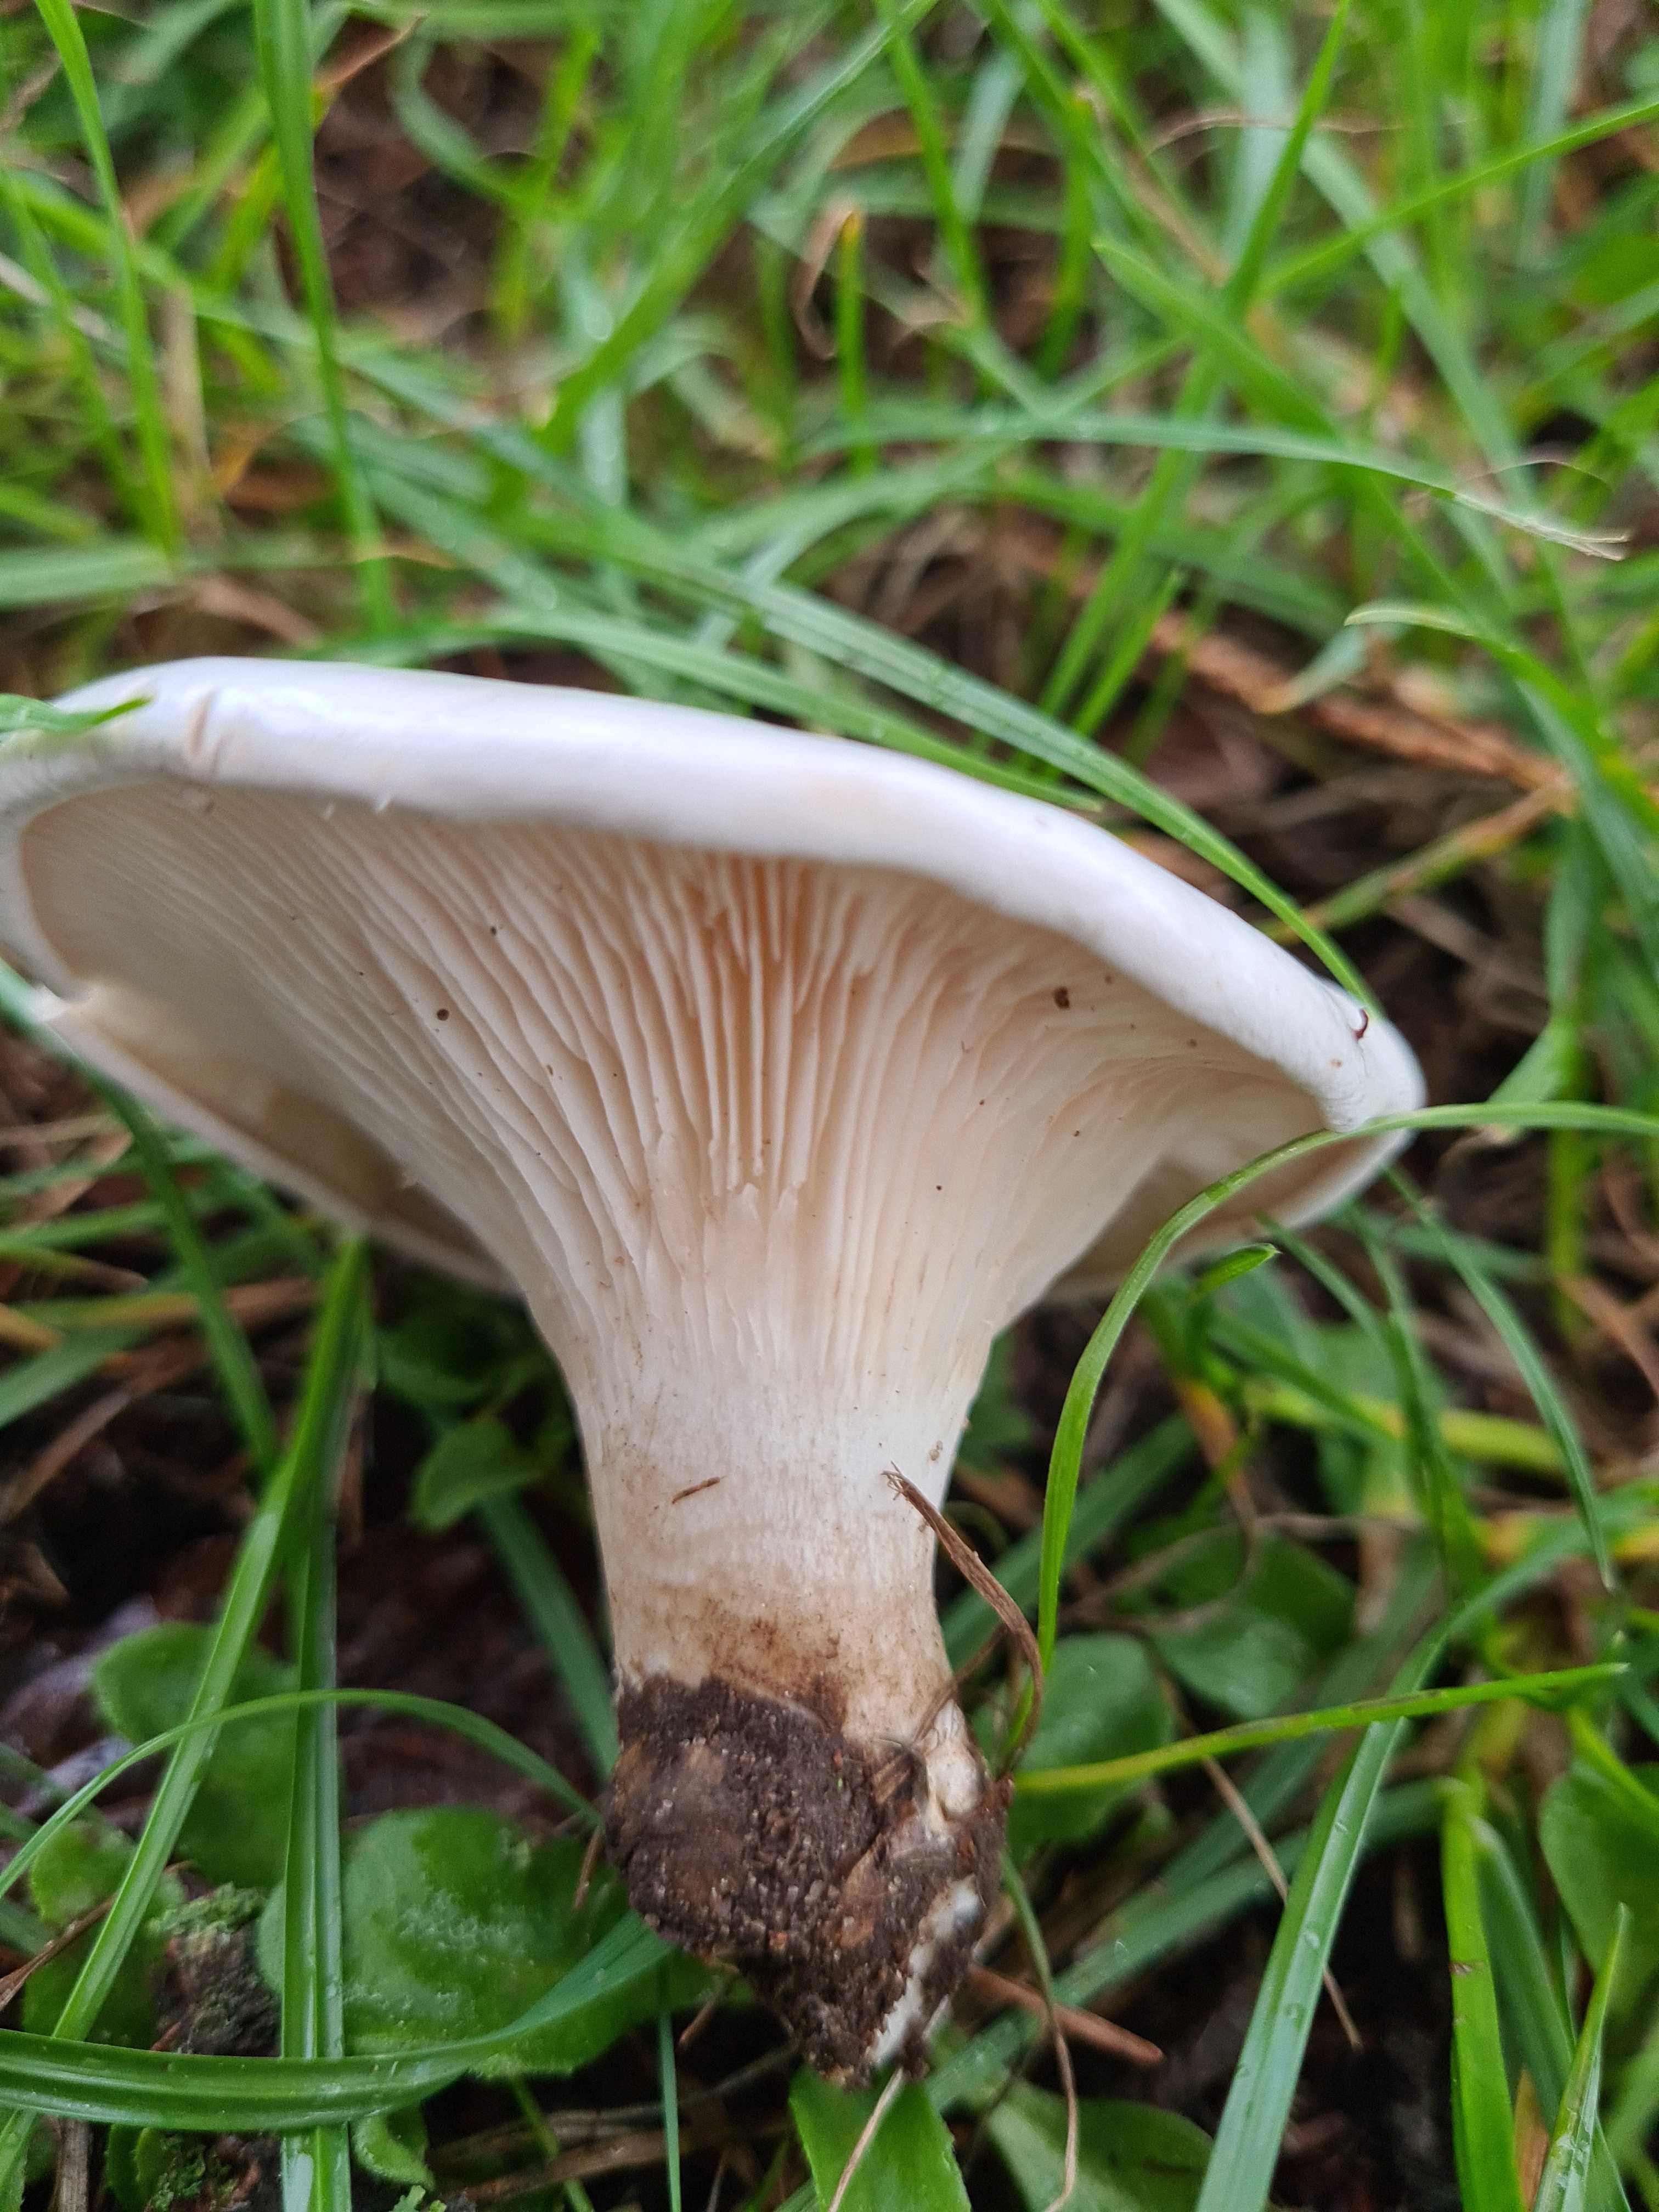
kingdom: Fungi
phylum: Basidiomycota
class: Agaricomycetes
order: Agaricales
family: Entolomataceae
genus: Clitopilus
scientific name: Clitopilus prunulus
